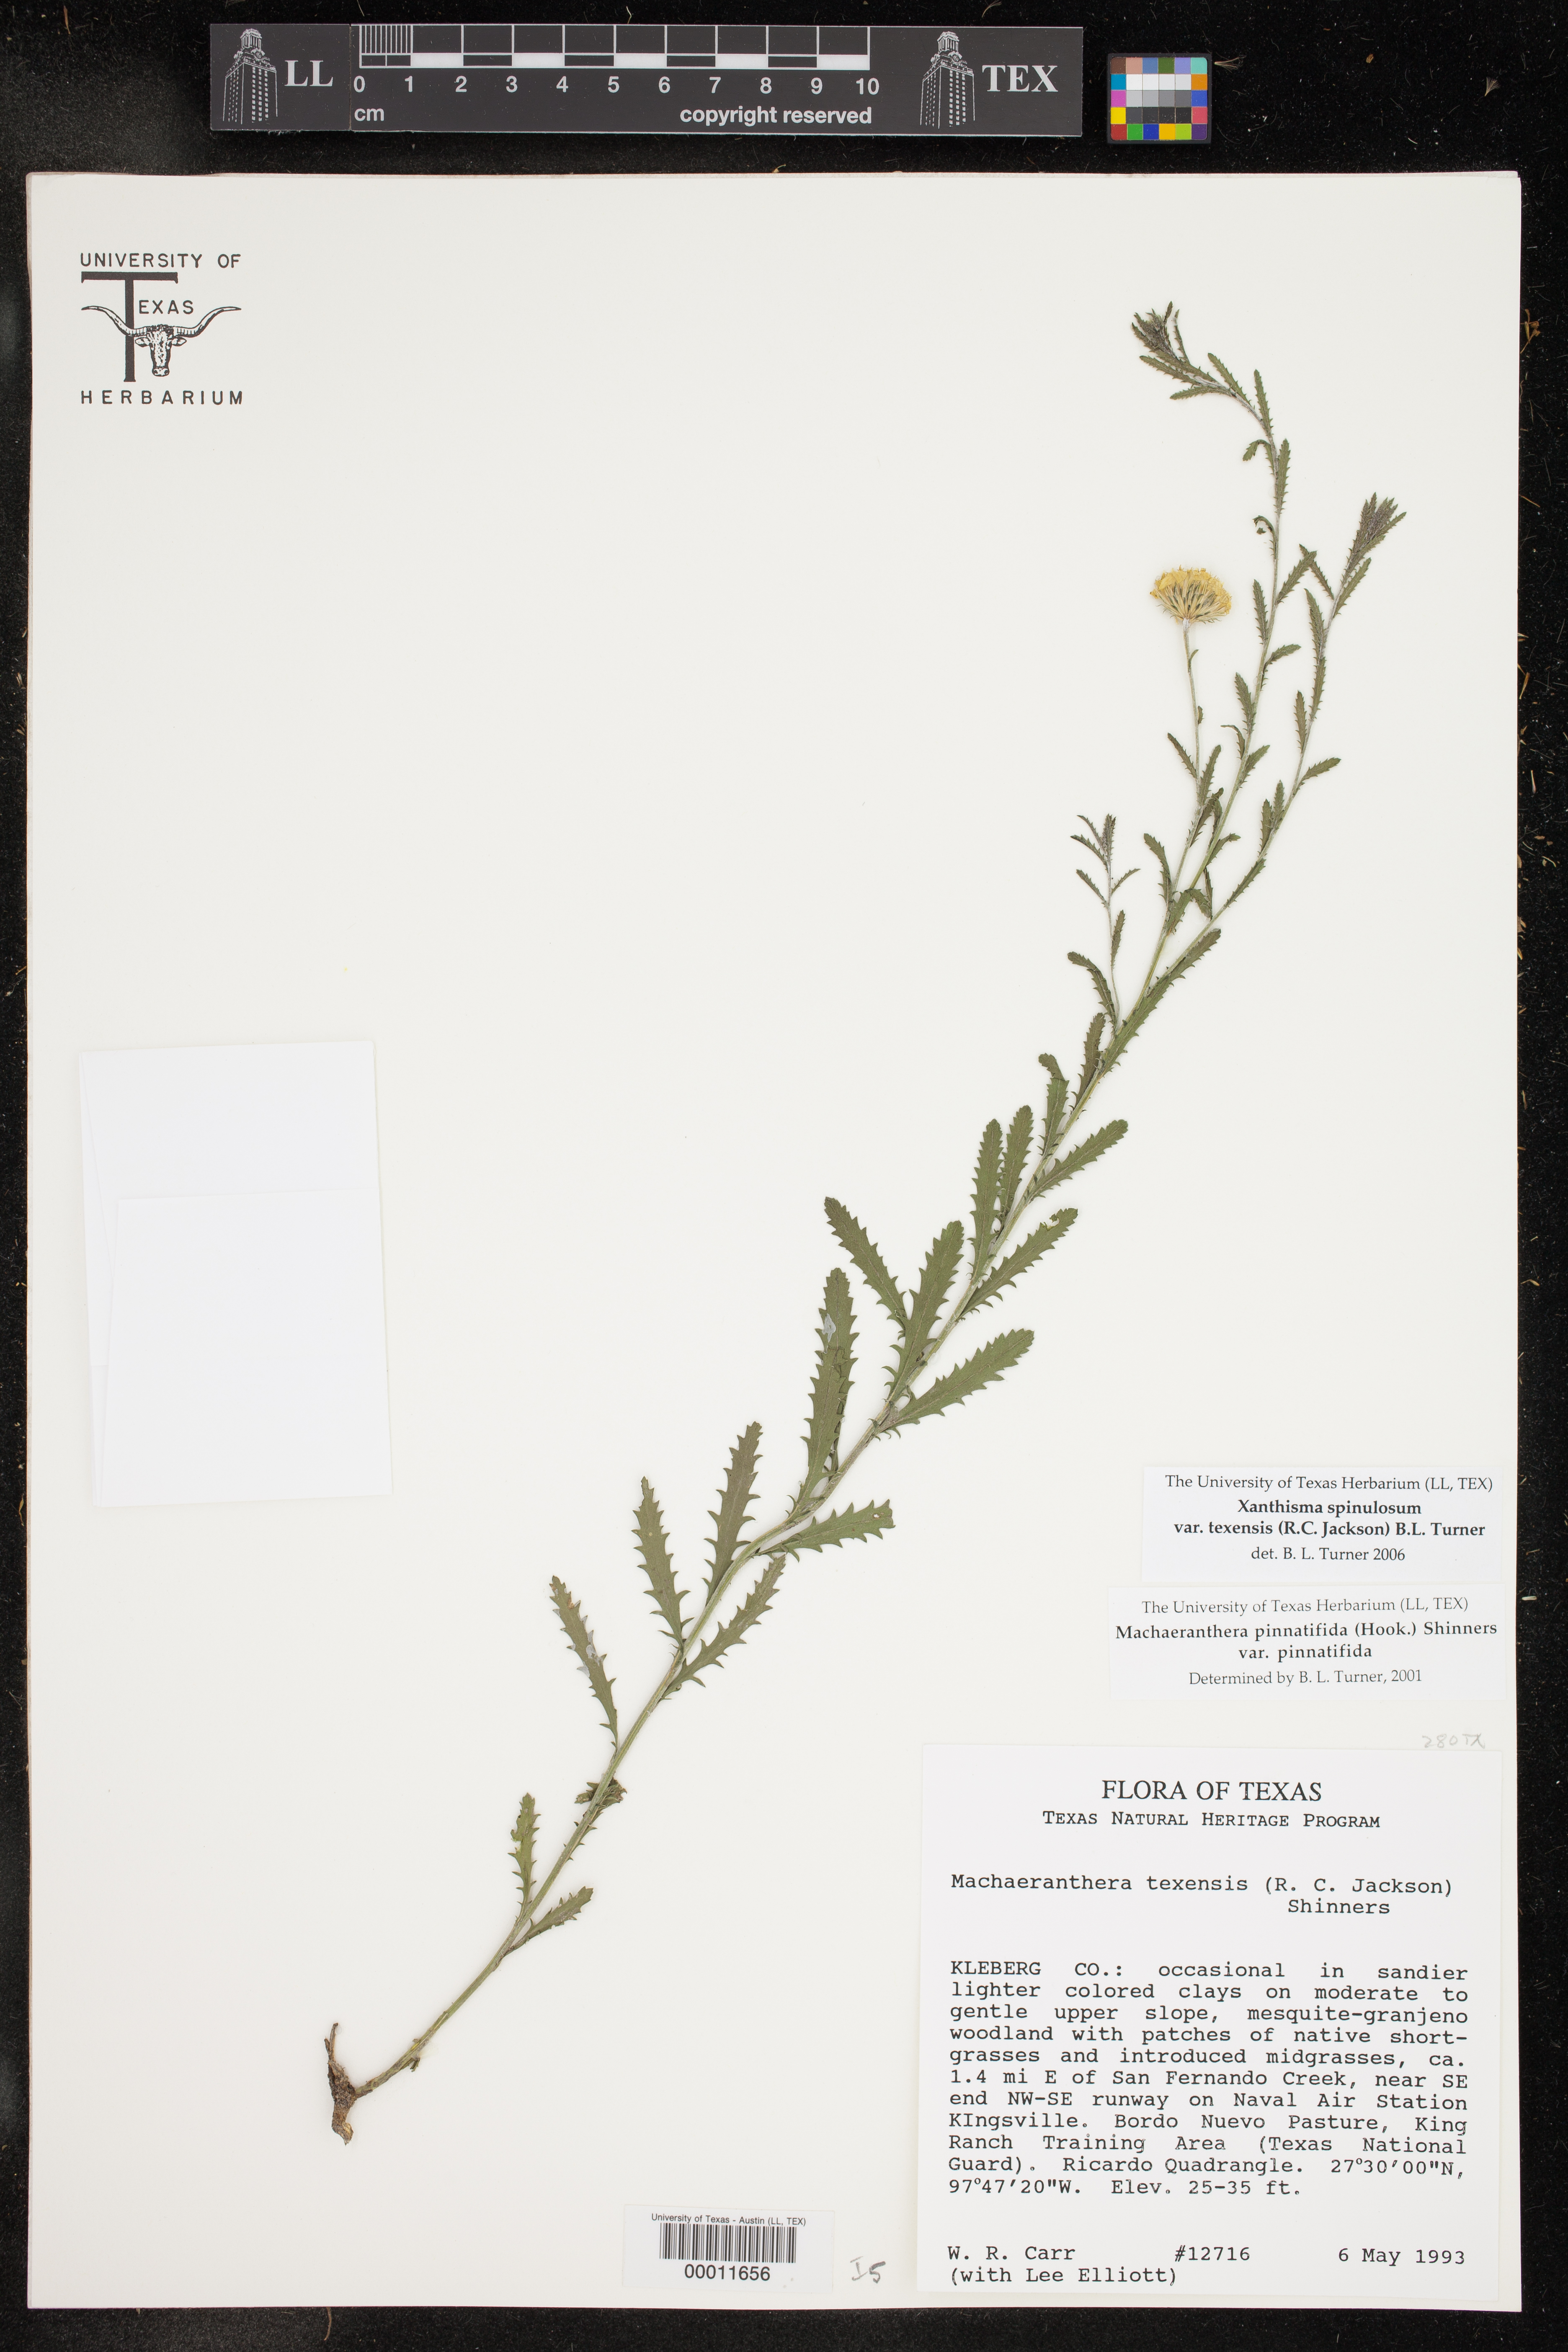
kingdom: Plantae
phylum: Tracheophyta
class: Magnoliopsida
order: Asterales
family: Asteraceae
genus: Xanthisma
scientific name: Xanthisma spinulosum
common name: Spiny goldenweed
